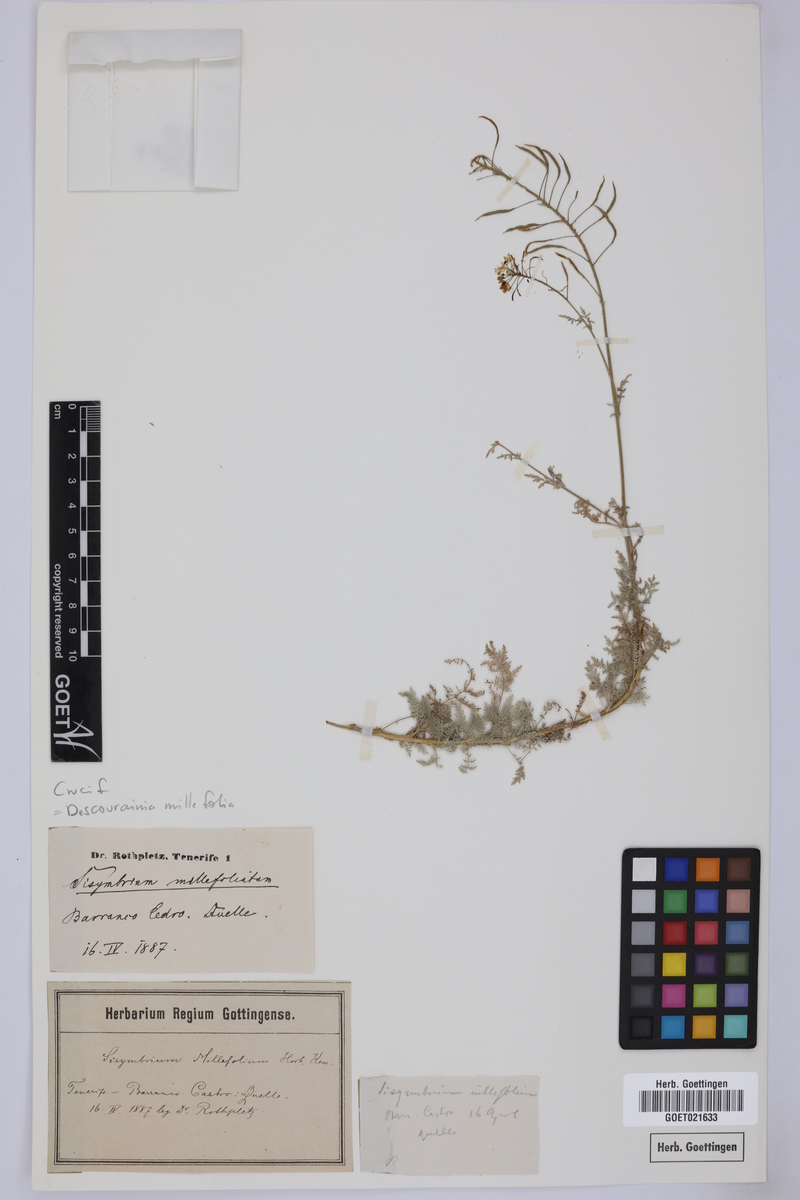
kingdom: Plantae
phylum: Tracheophyta
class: Magnoliopsida
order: Brassicales
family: Brassicaceae
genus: Descurainia
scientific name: Descurainia millefolia
